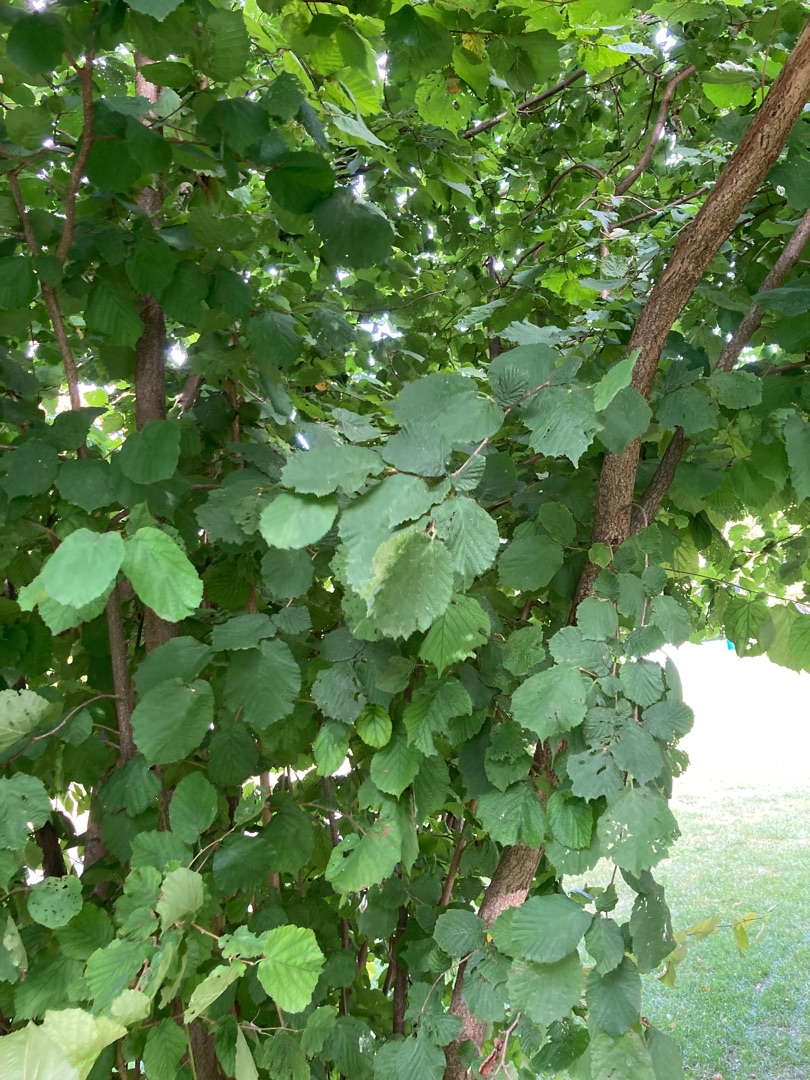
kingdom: Plantae
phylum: Tracheophyta
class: Magnoliopsida
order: Fagales
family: Betulaceae
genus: Corylus
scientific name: Corylus avellana
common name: Hassel
